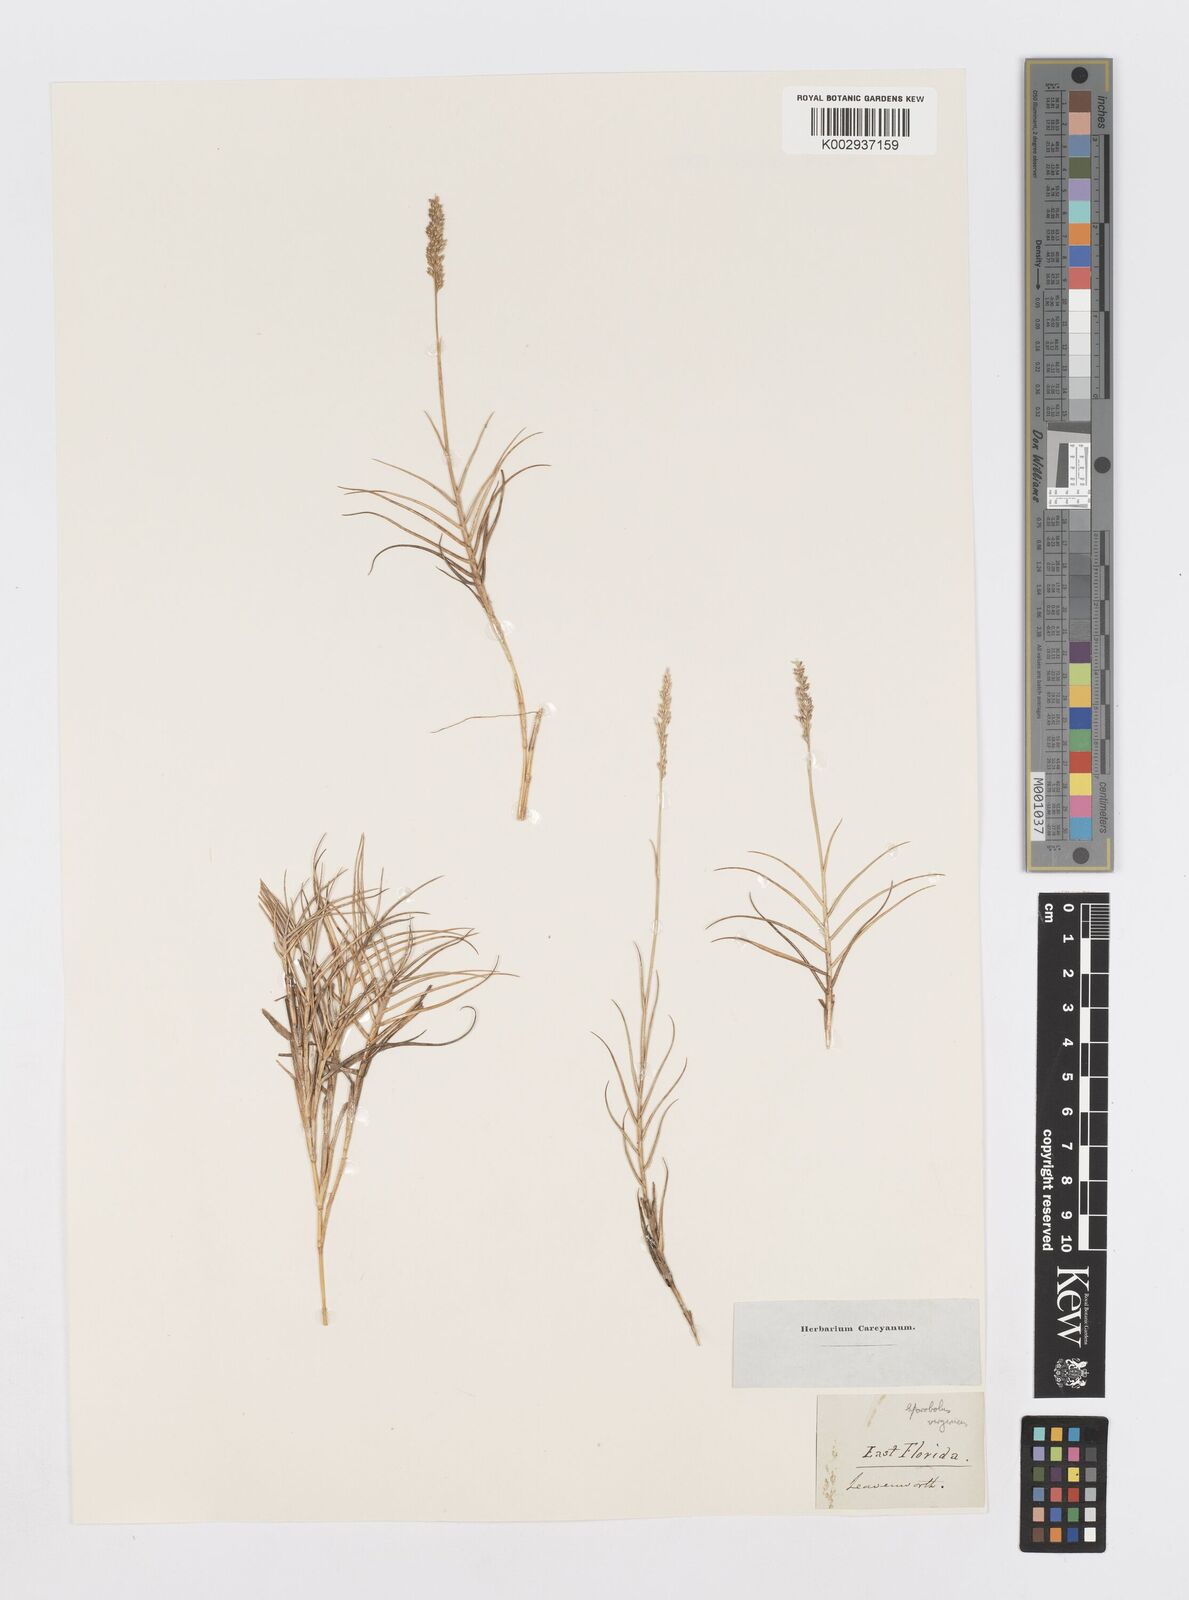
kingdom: Plantae
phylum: Tracheophyta
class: Liliopsida
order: Poales
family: Poaceae
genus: Sporobolus
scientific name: Sporobolus virginicus
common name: Beach dropseed
